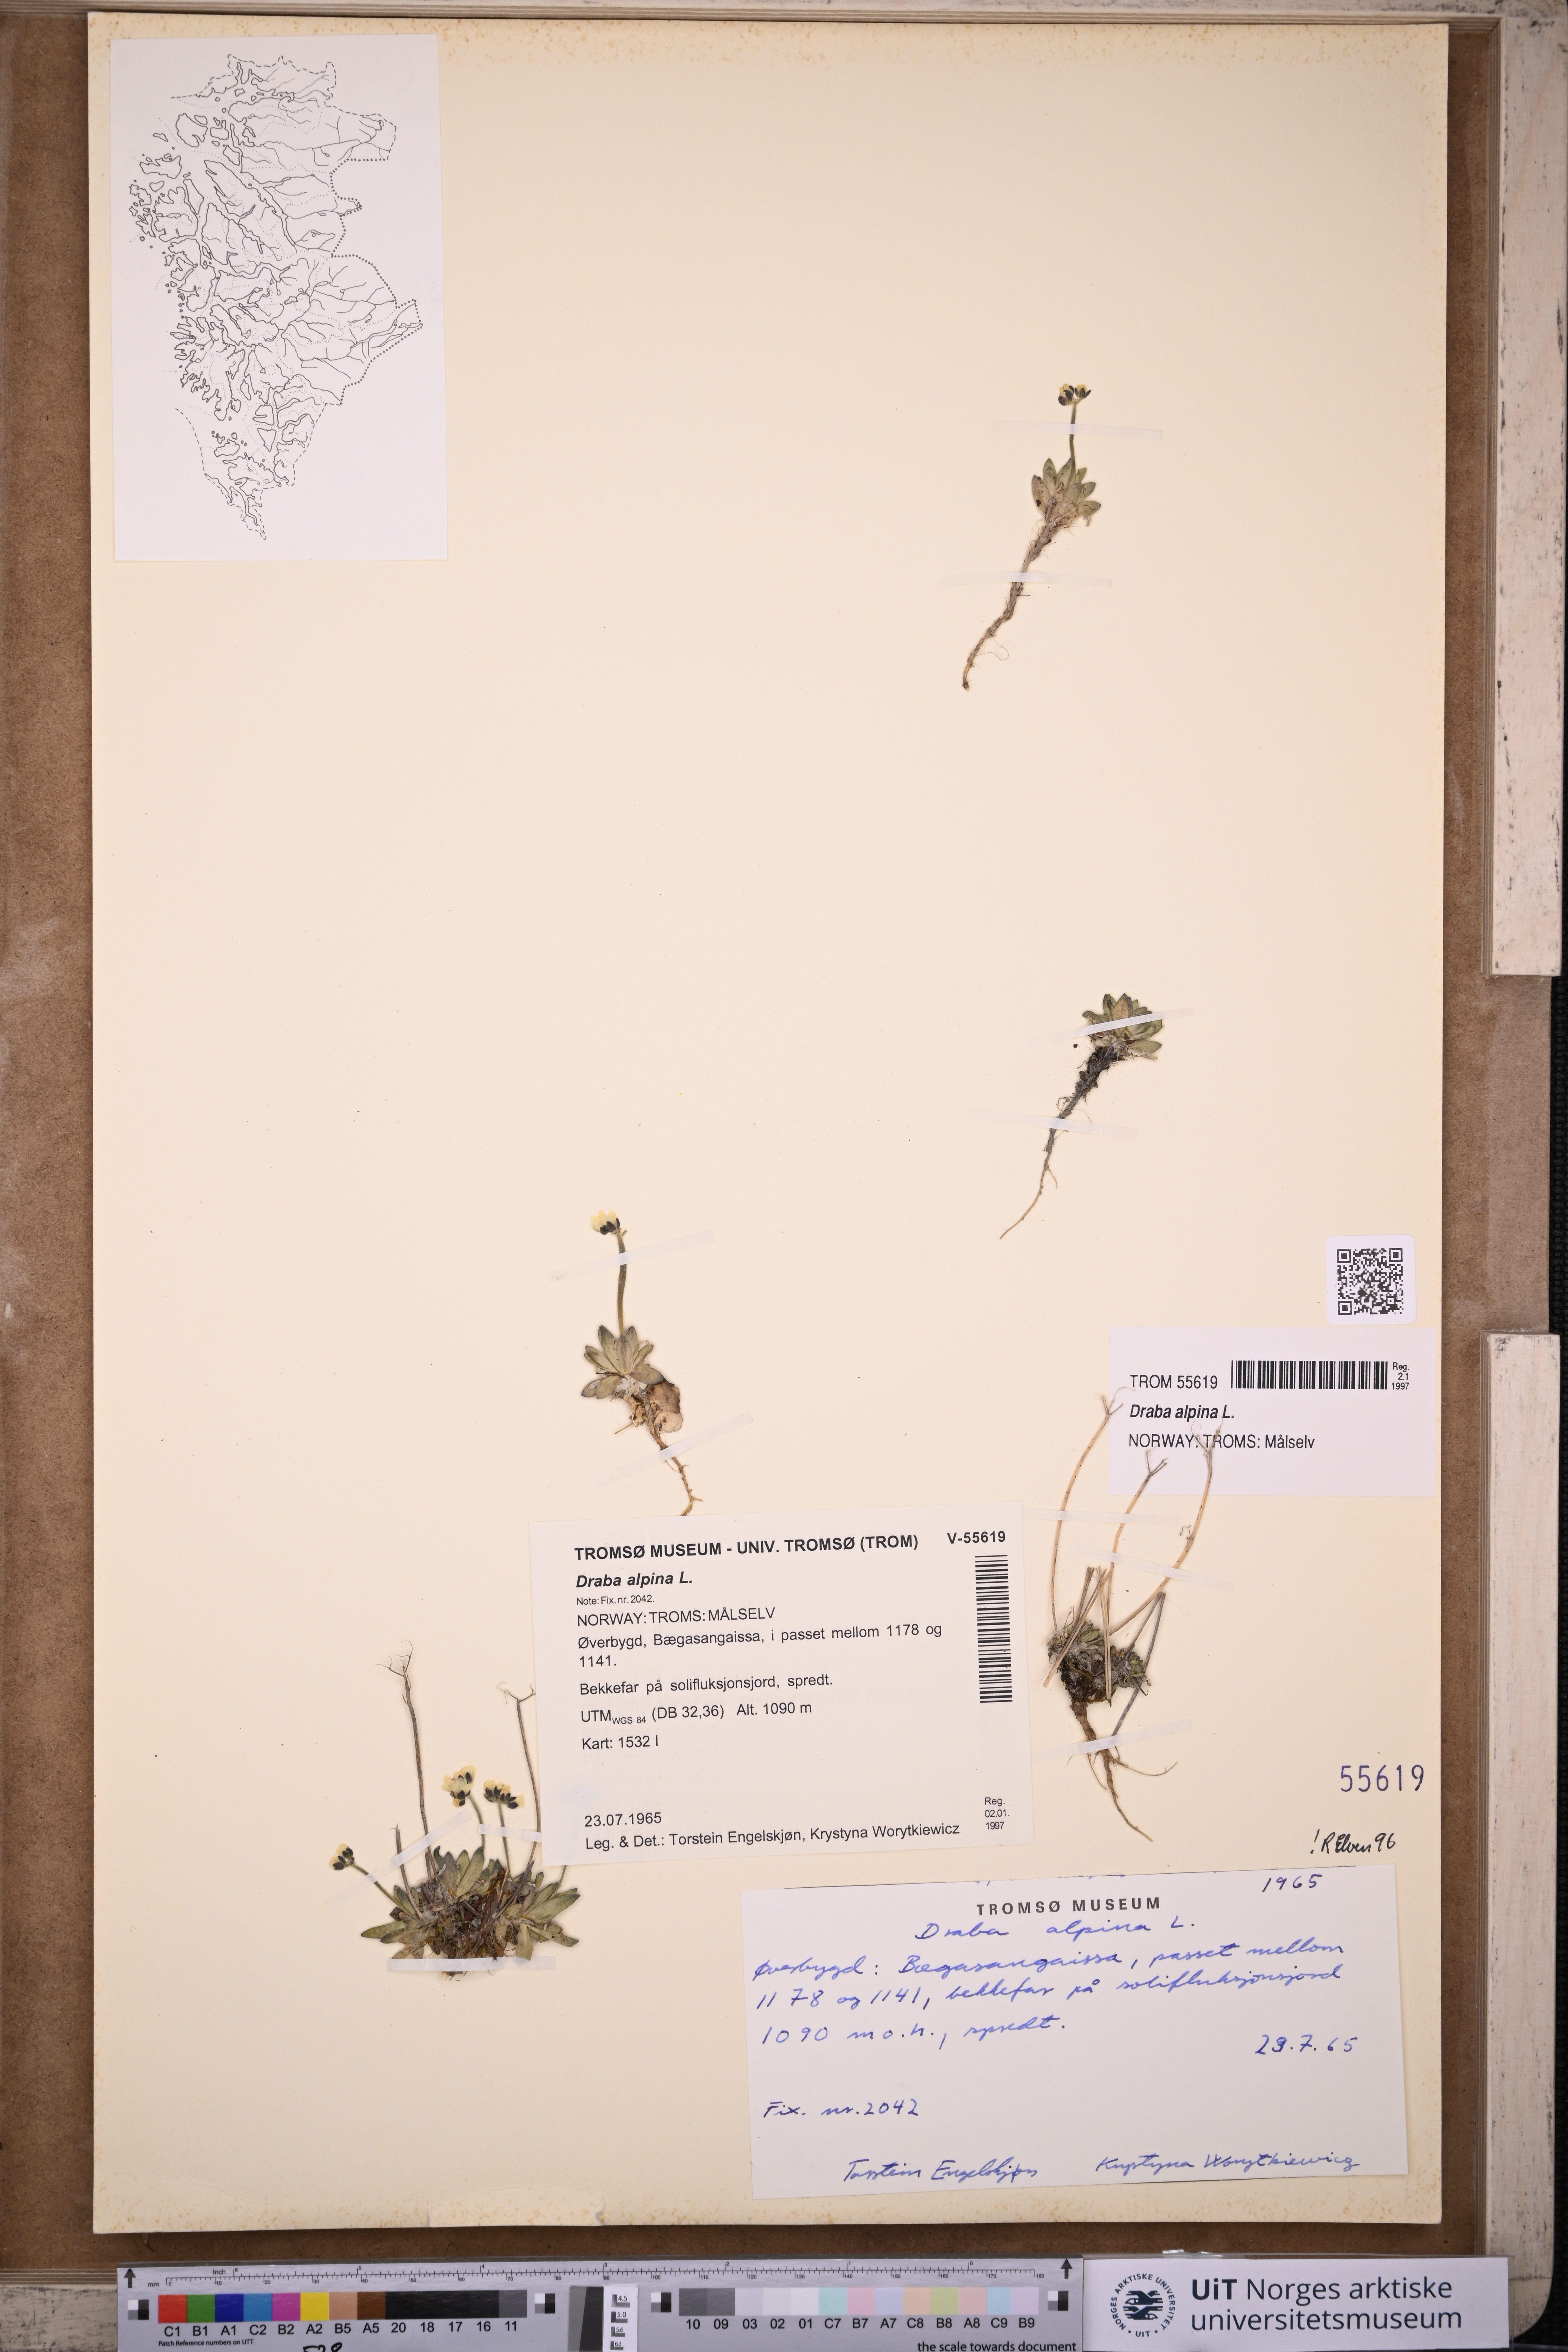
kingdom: Plantae
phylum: Tracheophyta
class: Magnoliopsida
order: Brassicales
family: Brassicaceae
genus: Draba
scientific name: Draba alpina
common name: Alpine draba
